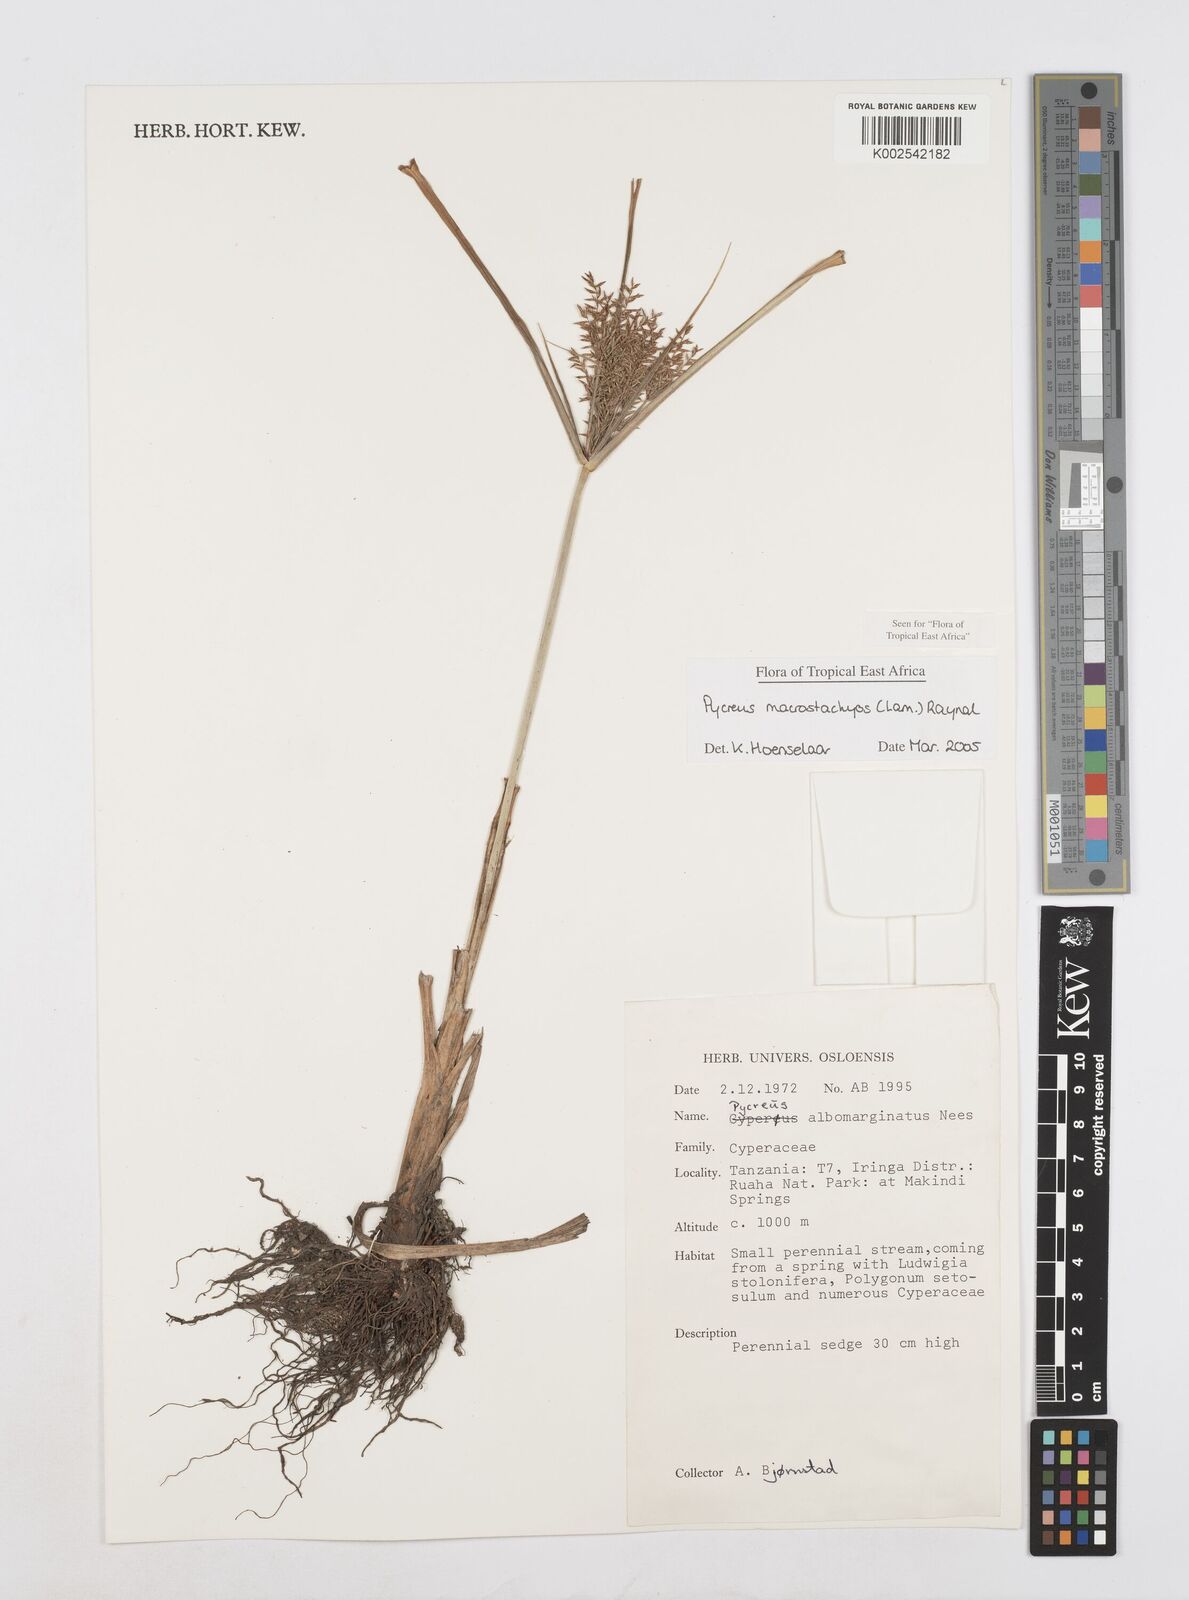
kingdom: Plantae
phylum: Tracheophyta
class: Liliopsida
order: Poales
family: Cyperaceae
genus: Cyperus
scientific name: Cyperus macrostachyos
